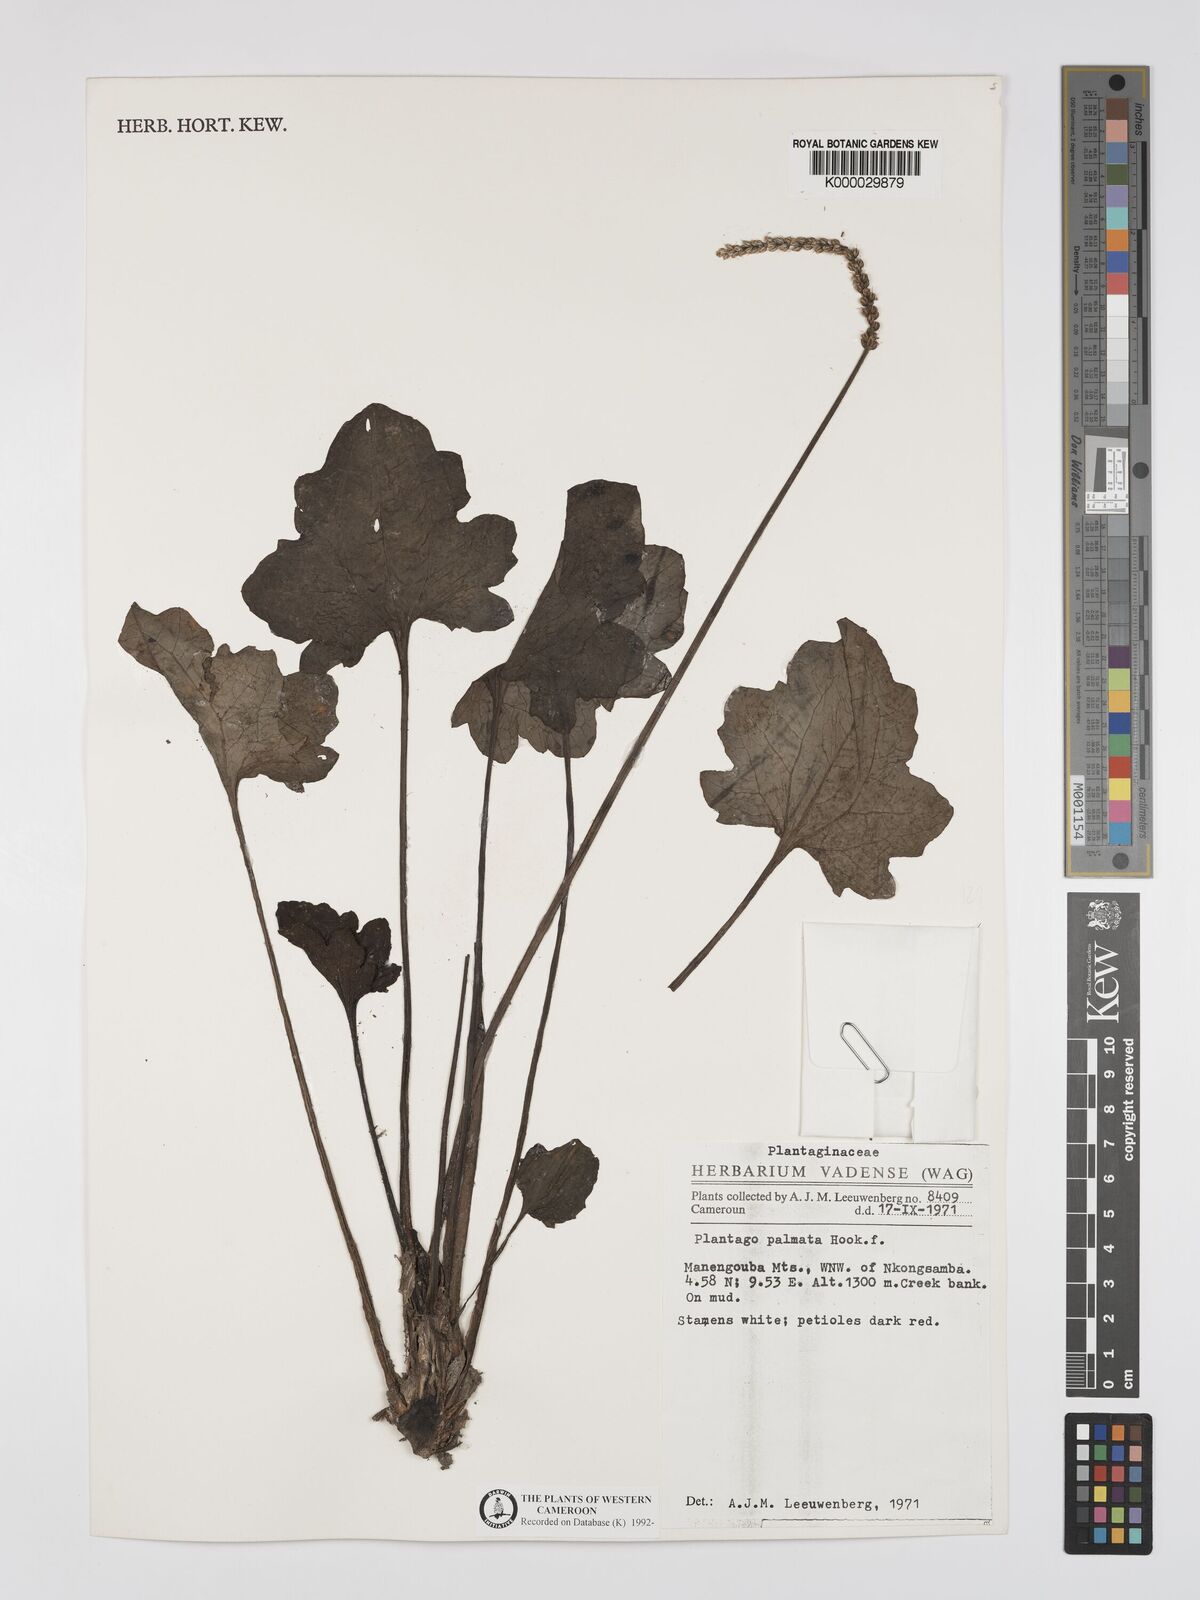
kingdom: Plantae
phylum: Tracheophyta
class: Magnoliopsida
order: Lamiales
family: Plantaginaceae
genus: Plantago
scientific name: Plantago palmata
